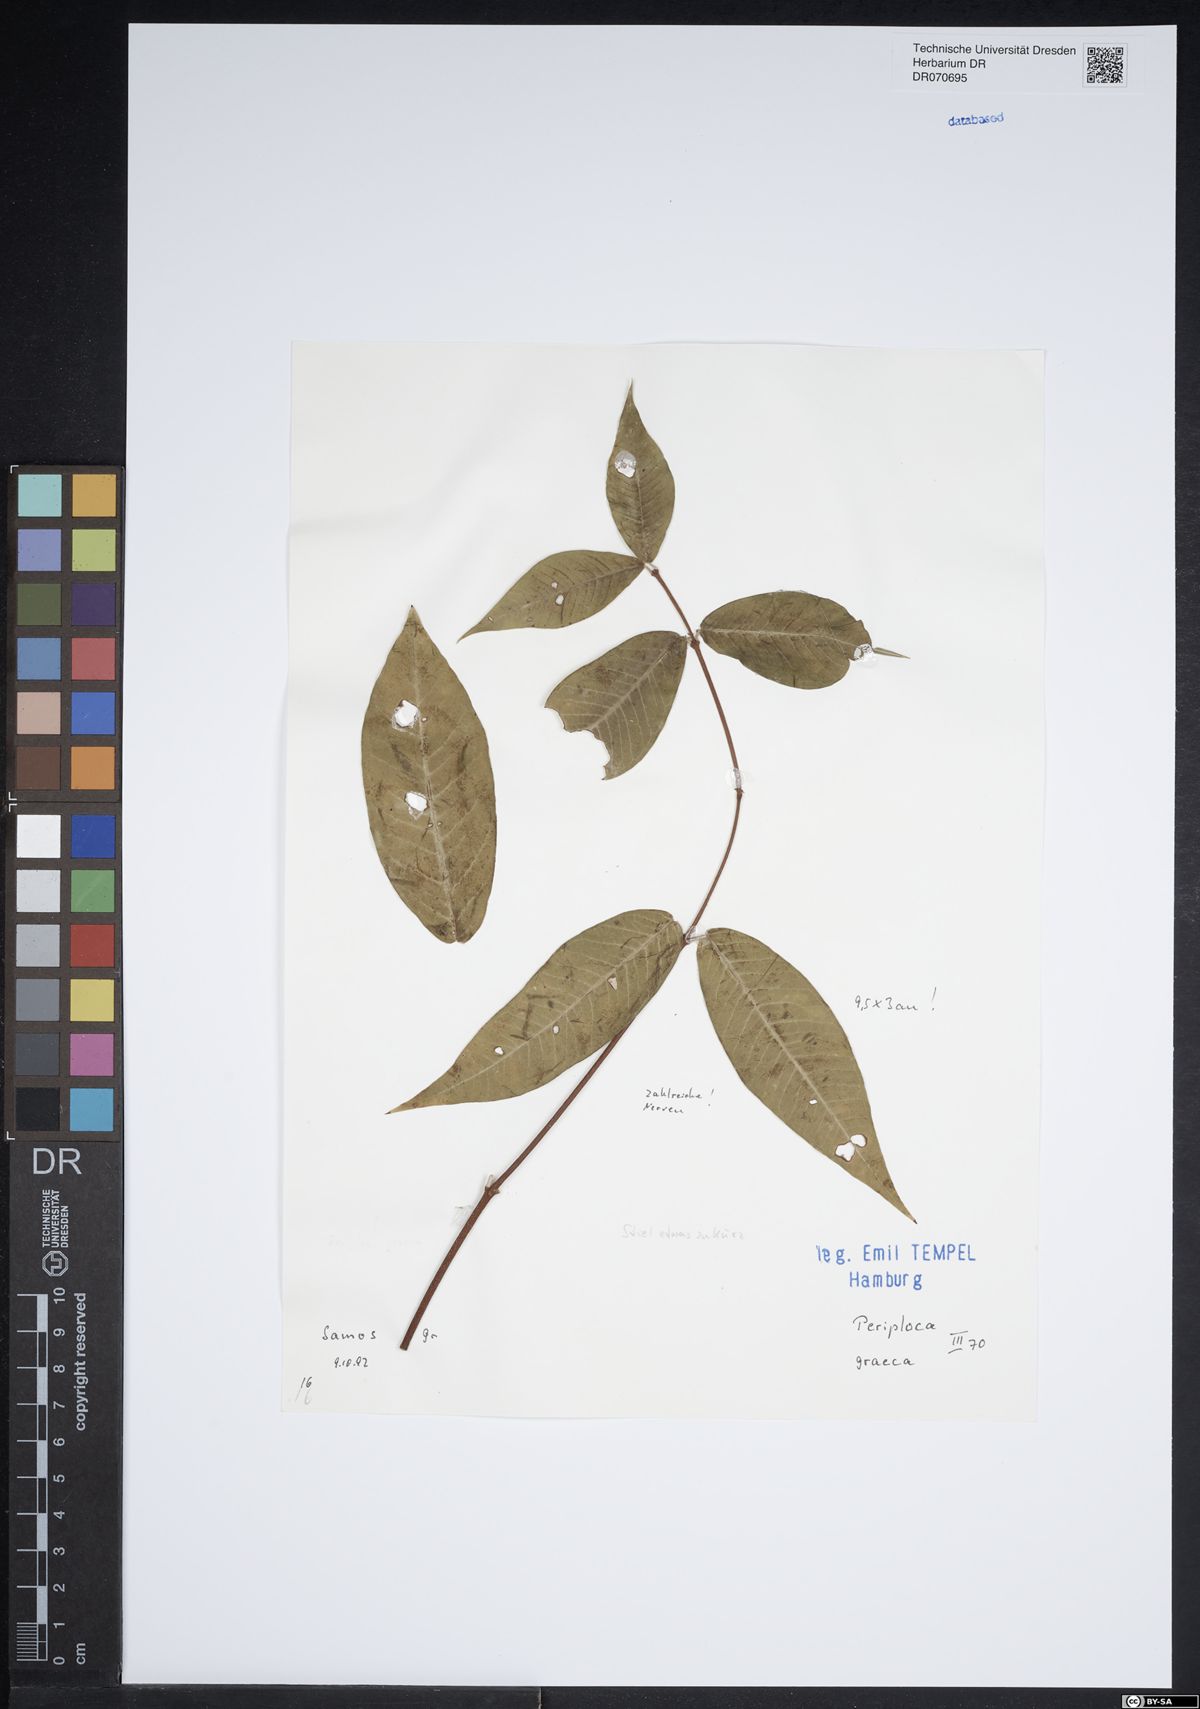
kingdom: Plantae
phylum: Tracheophyta
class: Magnoliopsida
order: Gentianales
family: Apocynaceae
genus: Periploca
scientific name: Periploca graeca
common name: Silkvine
